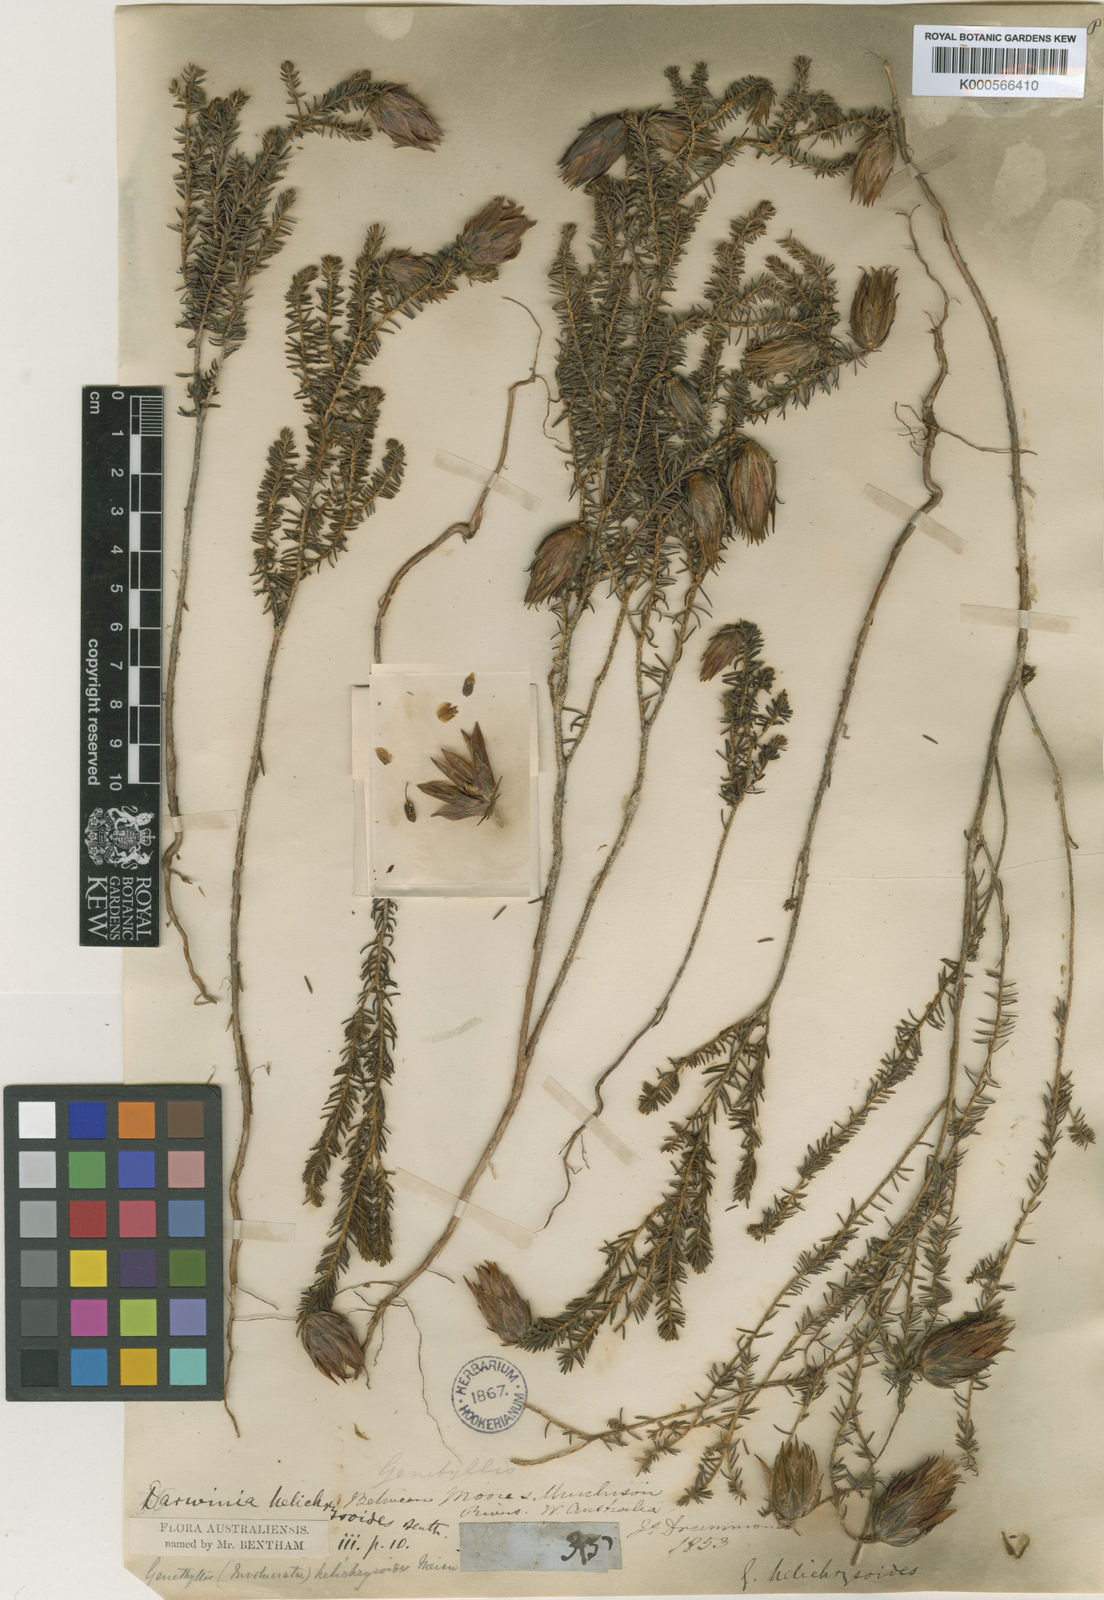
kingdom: Plantae
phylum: Tracheophyta
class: Magnoliopsida
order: Myrtales
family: Myrtaceae
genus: Darwinia
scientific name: Darwinia helichrysoides
